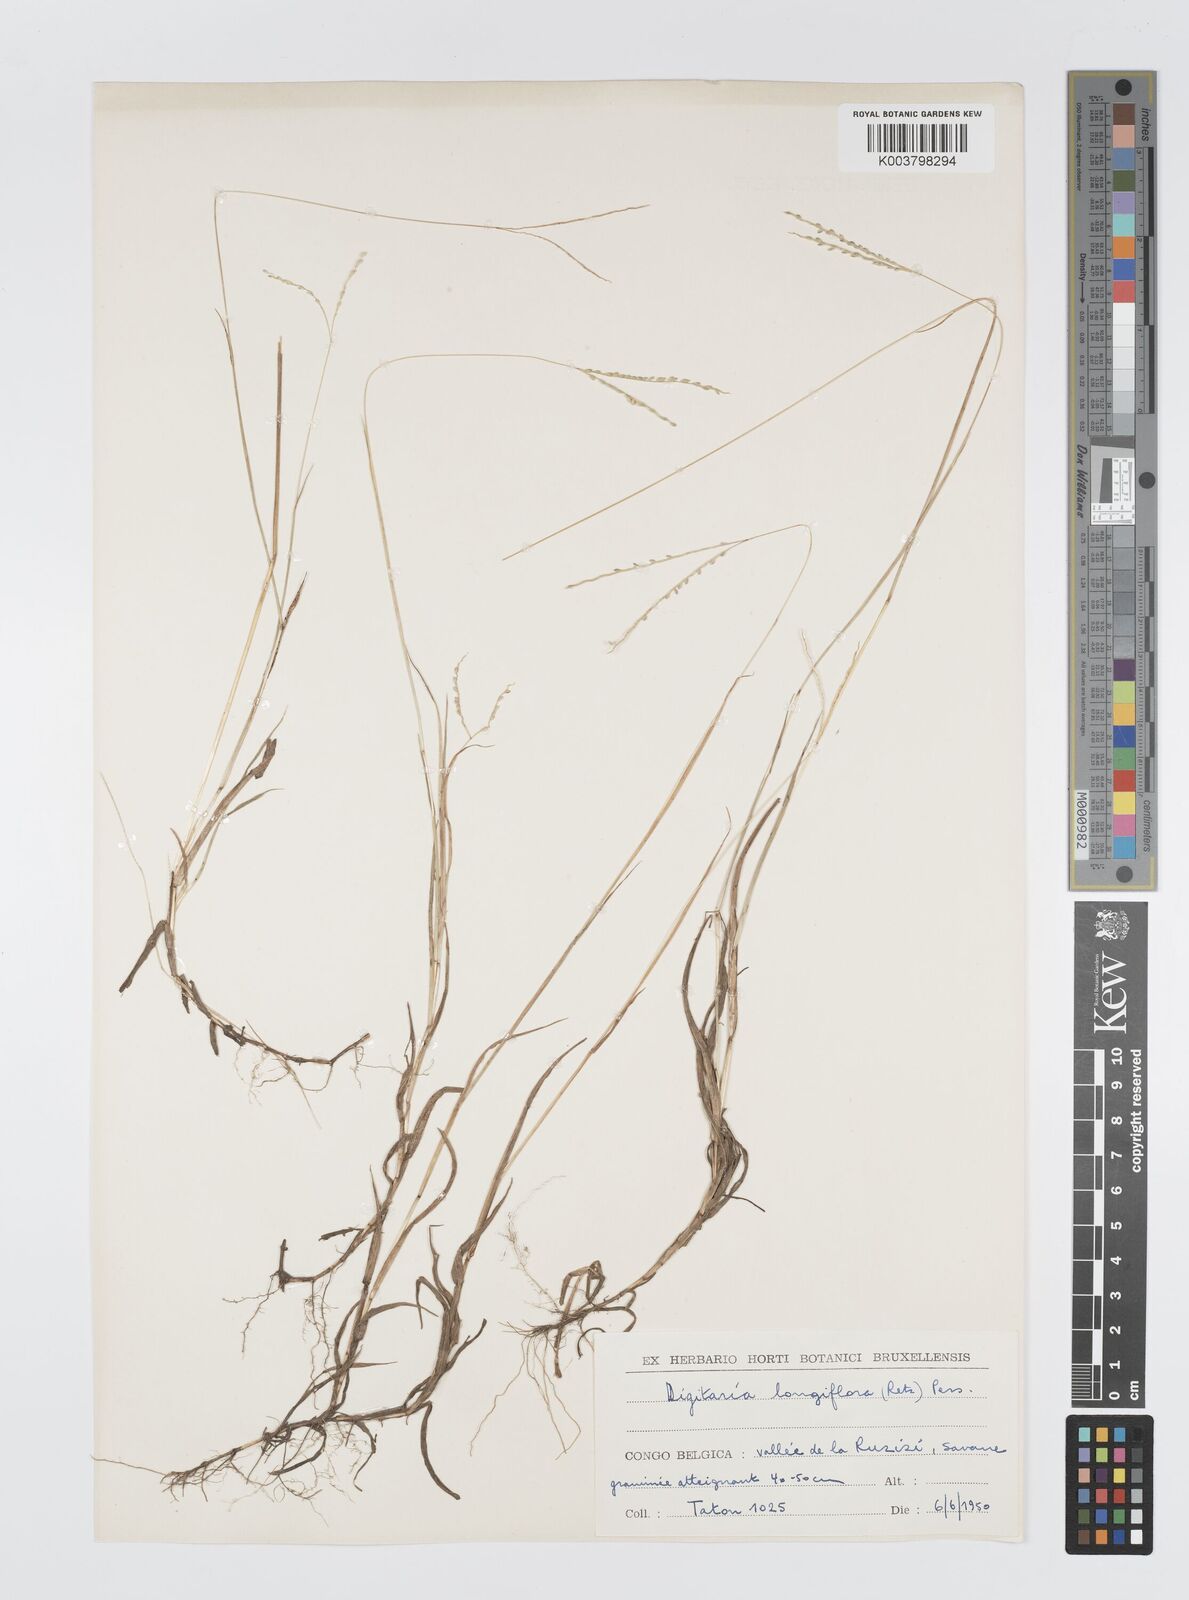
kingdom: Plantae
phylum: Tracheophyta
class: Liliopsida
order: Poales
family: Poaceae
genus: Digitaria
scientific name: Digitaria longiflora
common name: Wire crabgrass
